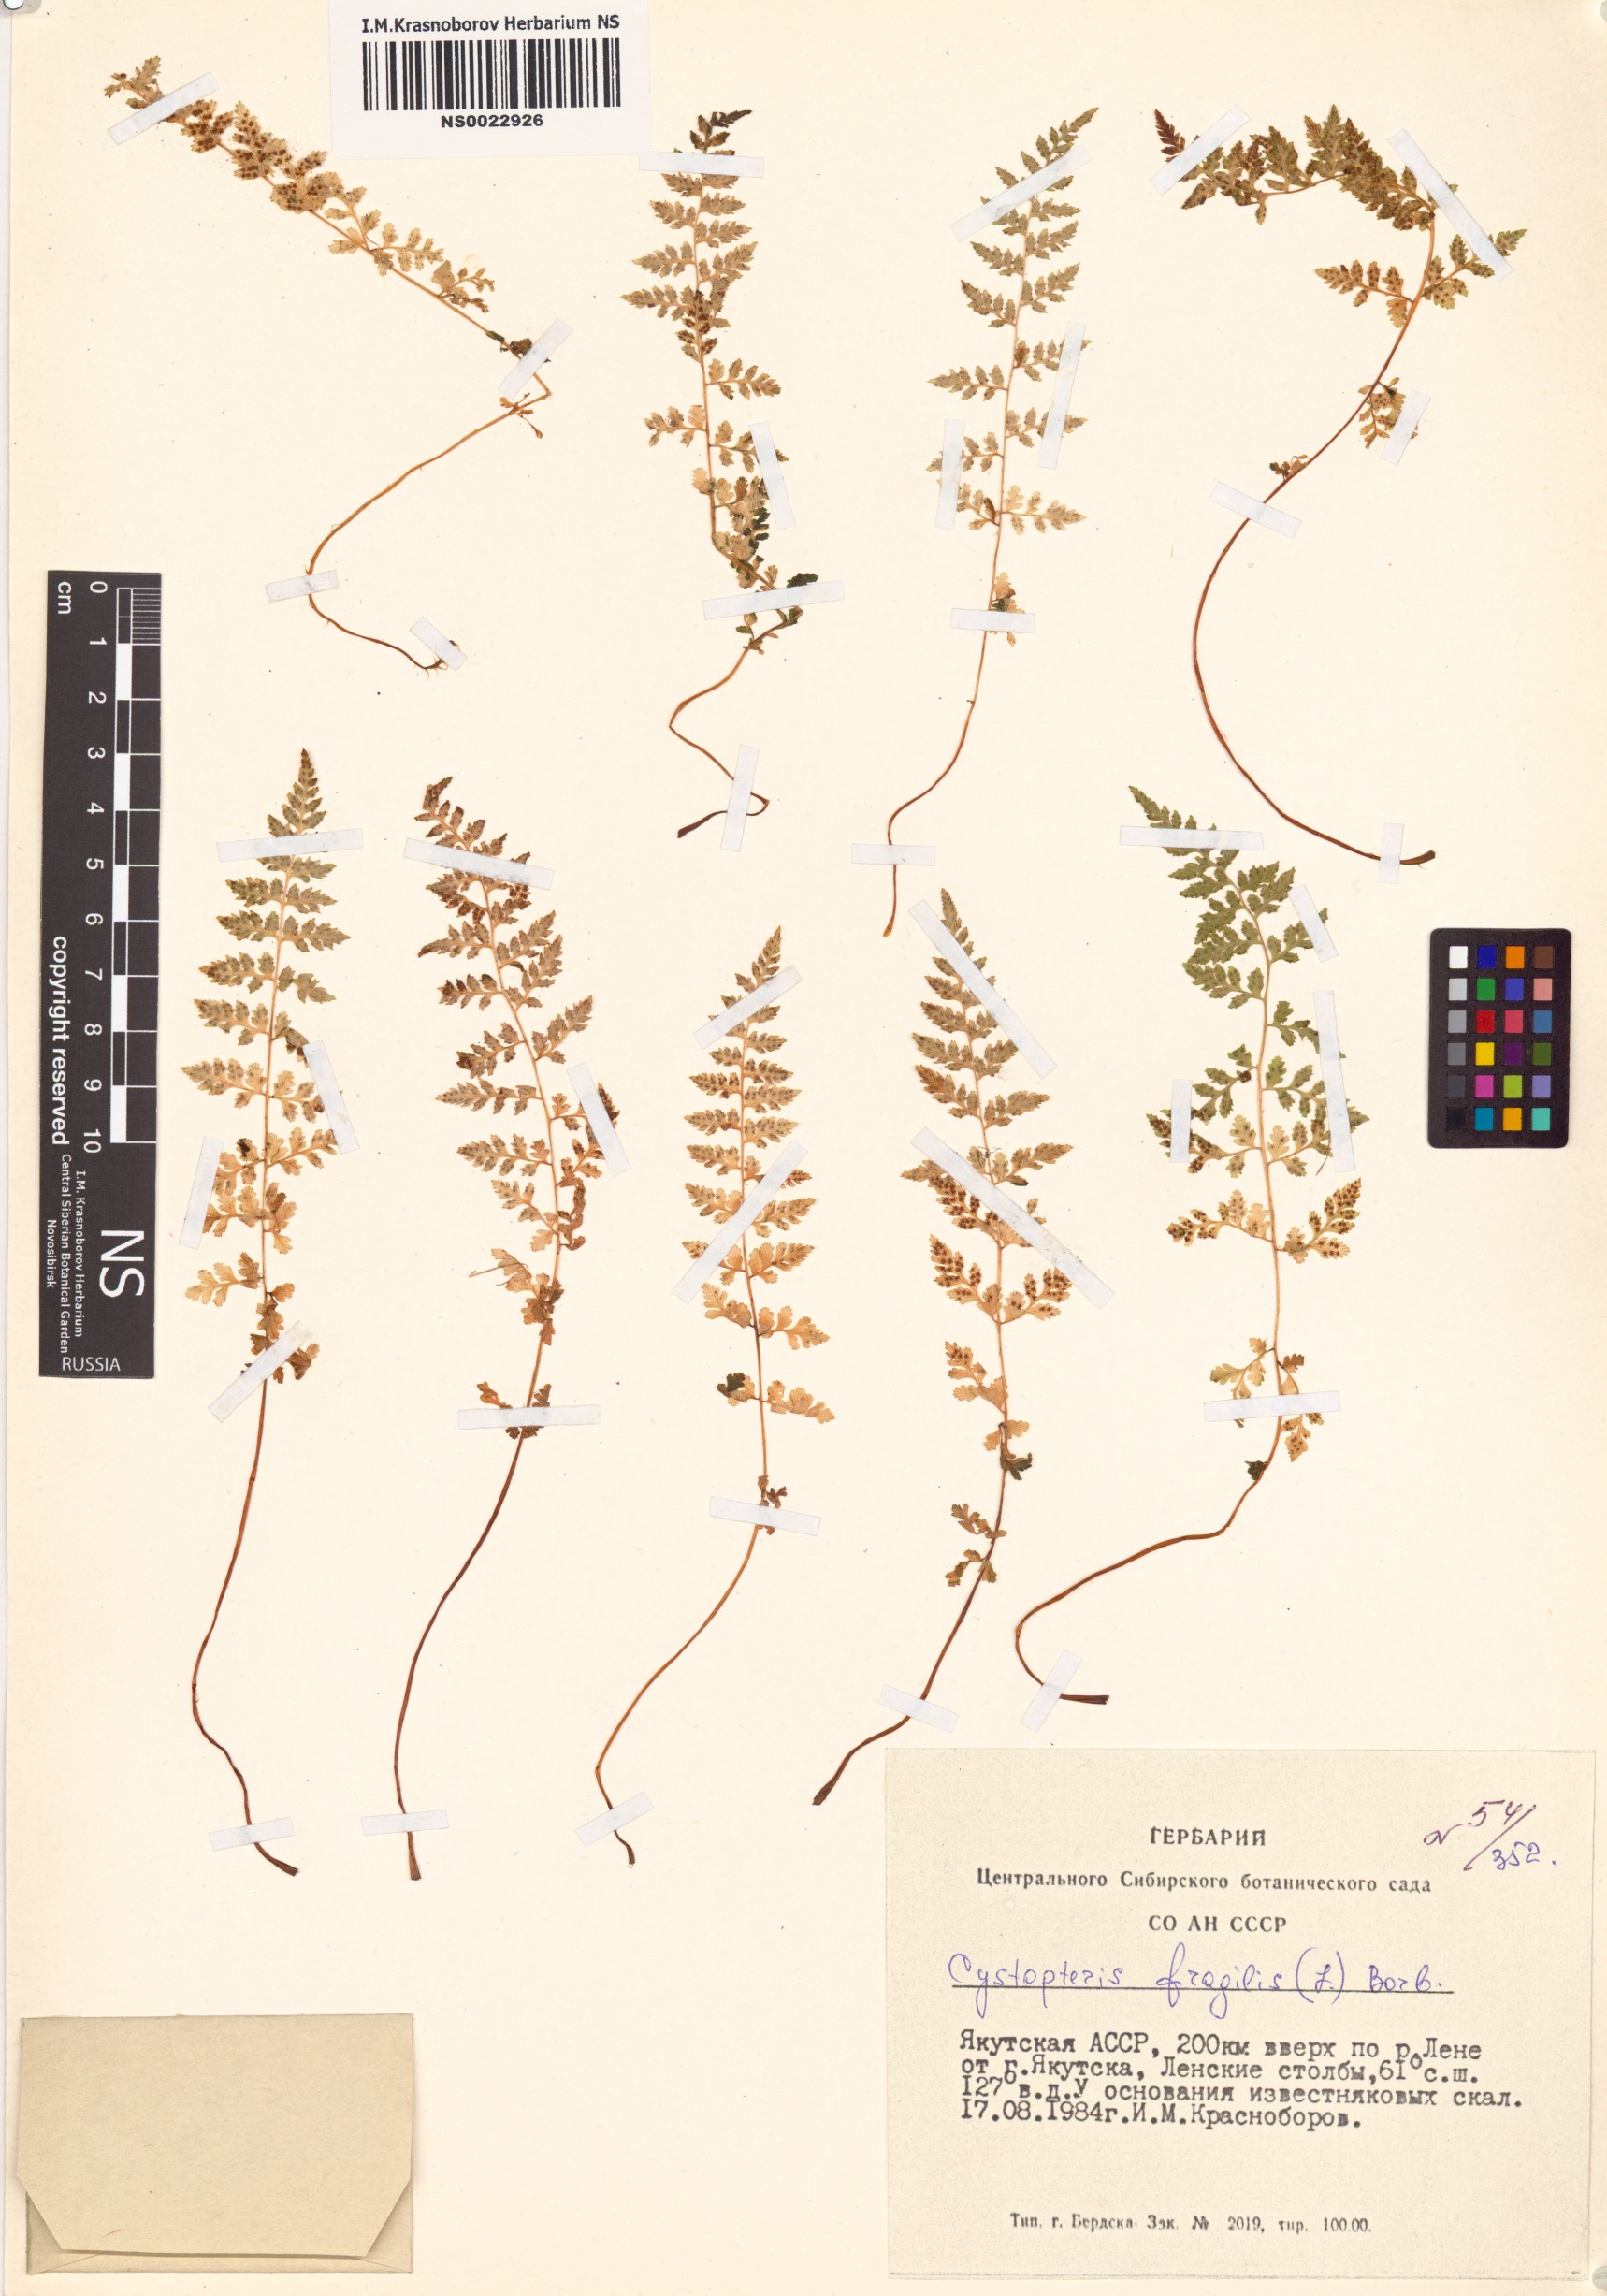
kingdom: Plantae
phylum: Tracheophyta
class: Polypodiopsida
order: Polypodiales
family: Cystopteridaceae
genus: Cystopteris
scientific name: Cystopteris fragilis
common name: Brittle bladder fern
